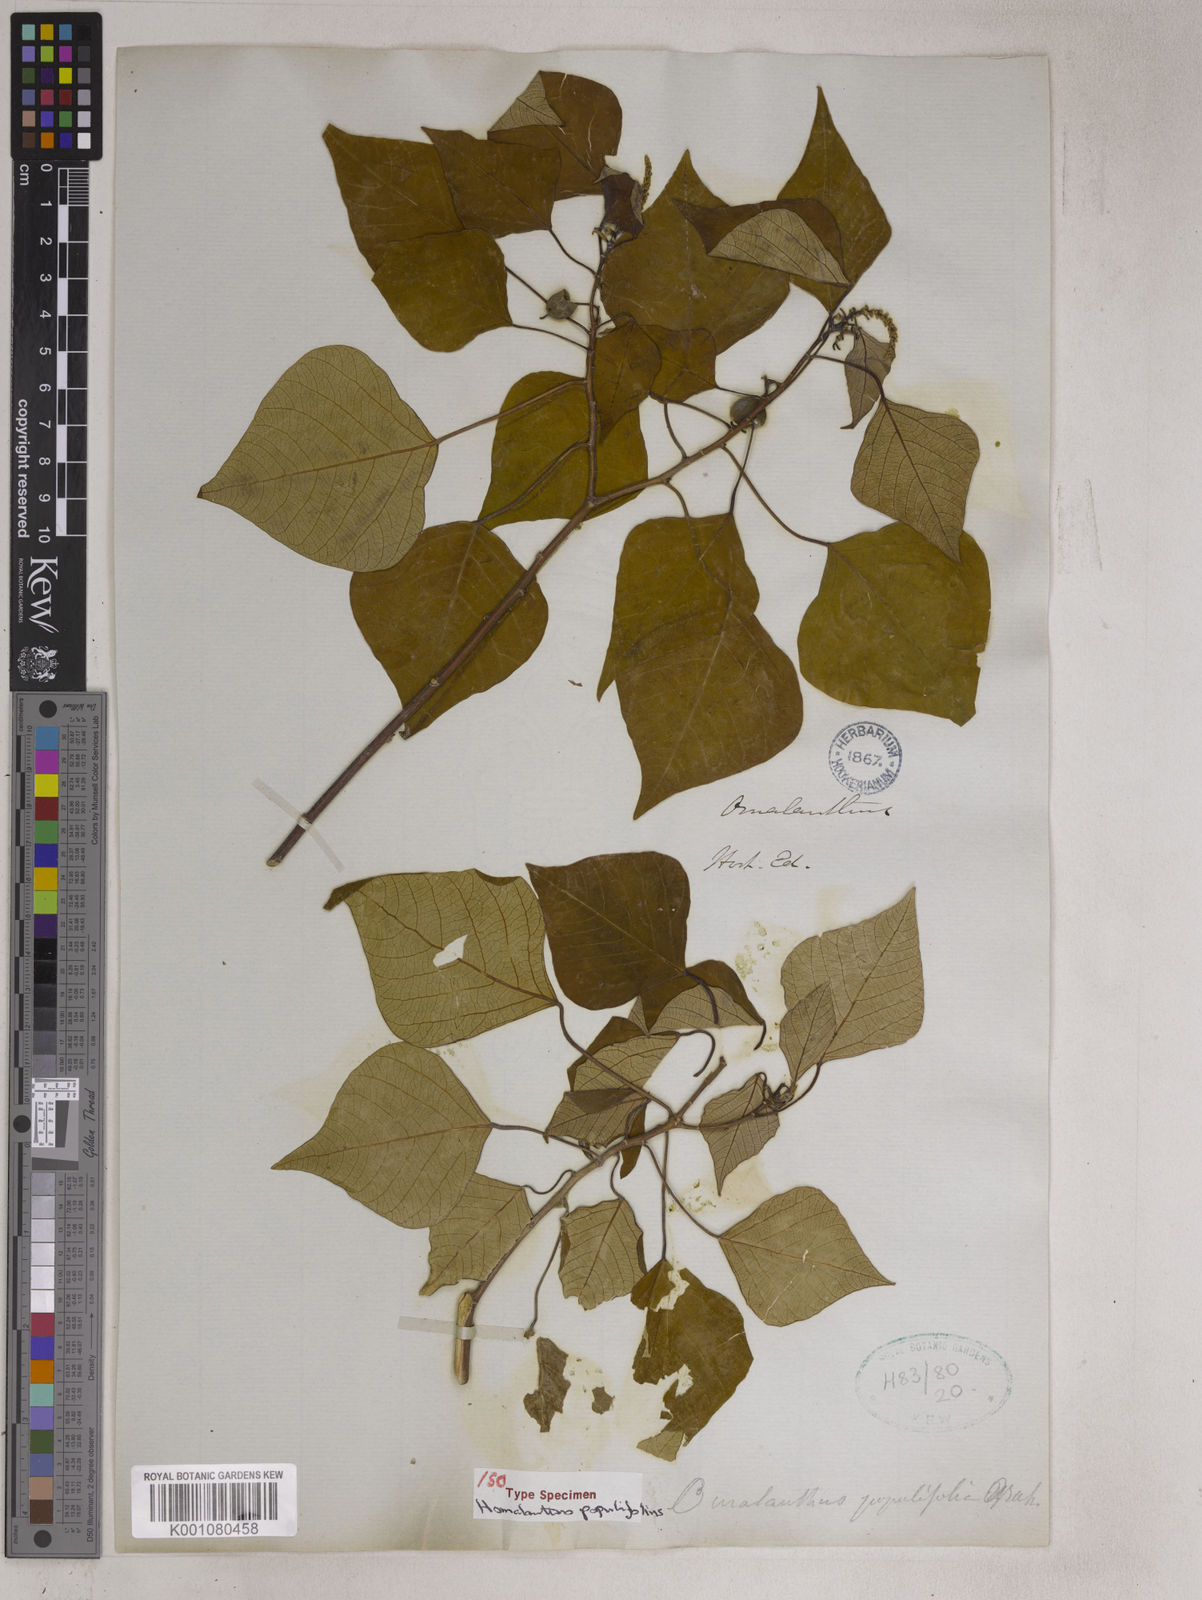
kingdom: Plantae
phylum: Tracheophyta
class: Magnoliopsida
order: Malpighiales
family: Euphorbiaceae
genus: Homalanthus
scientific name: Homalanthus populifolius
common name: Queensland poplar
